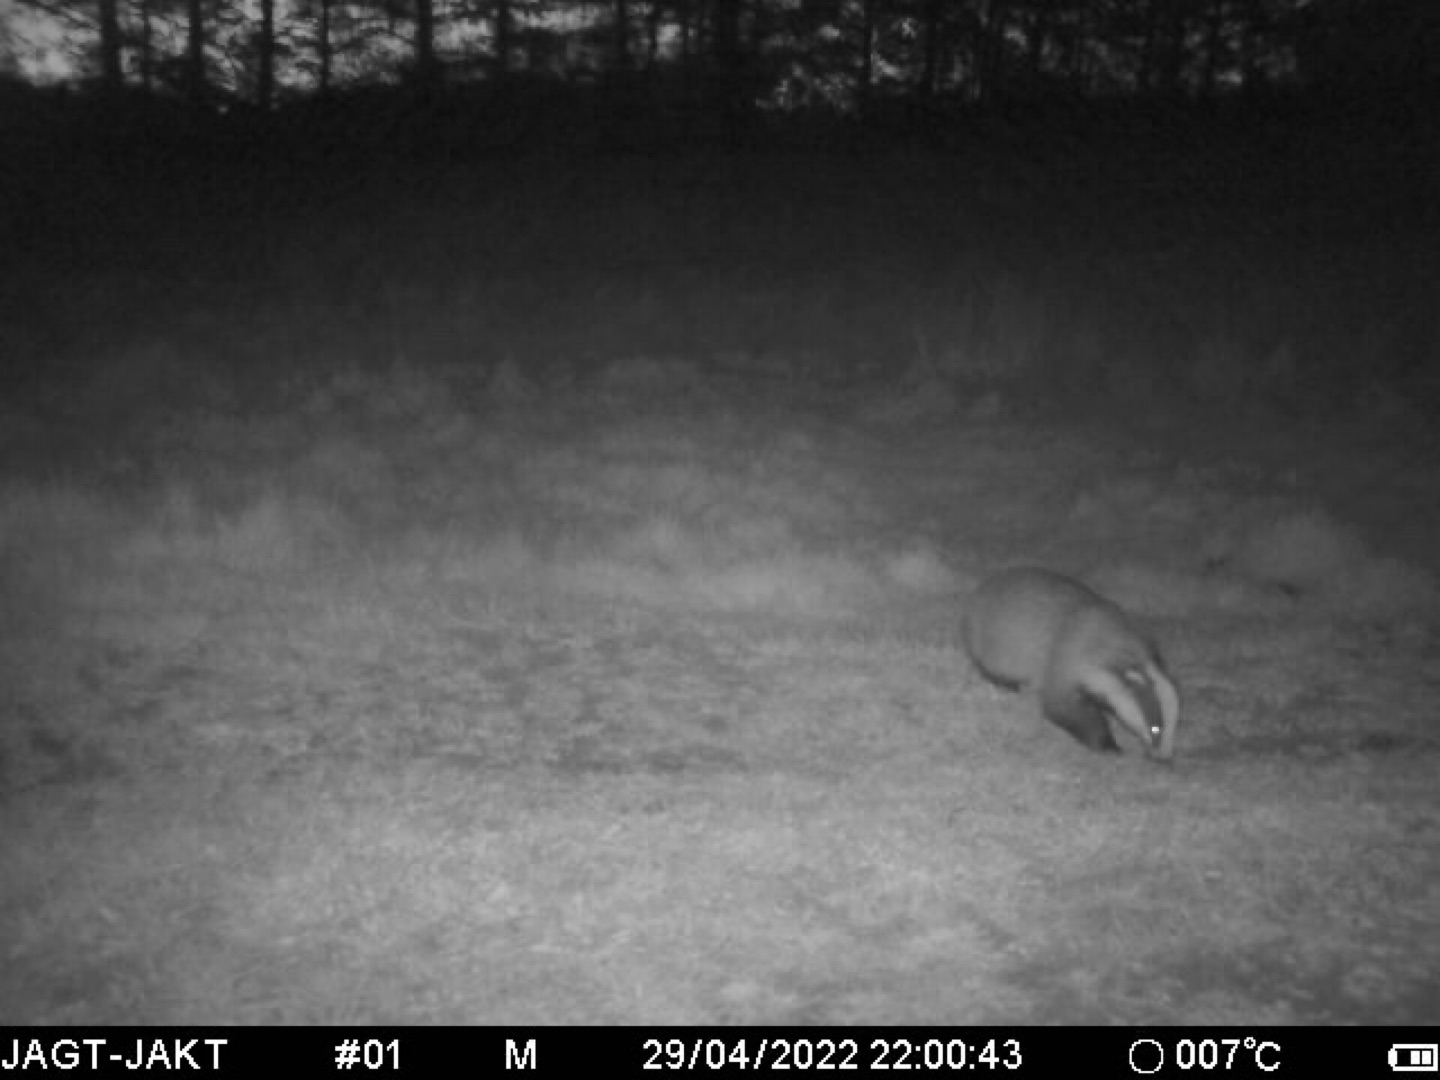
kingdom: Animalia
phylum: Chordata
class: Mammalia
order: Carnivora
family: Mustelidae
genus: Meles
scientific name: Meles meles
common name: Grævling
